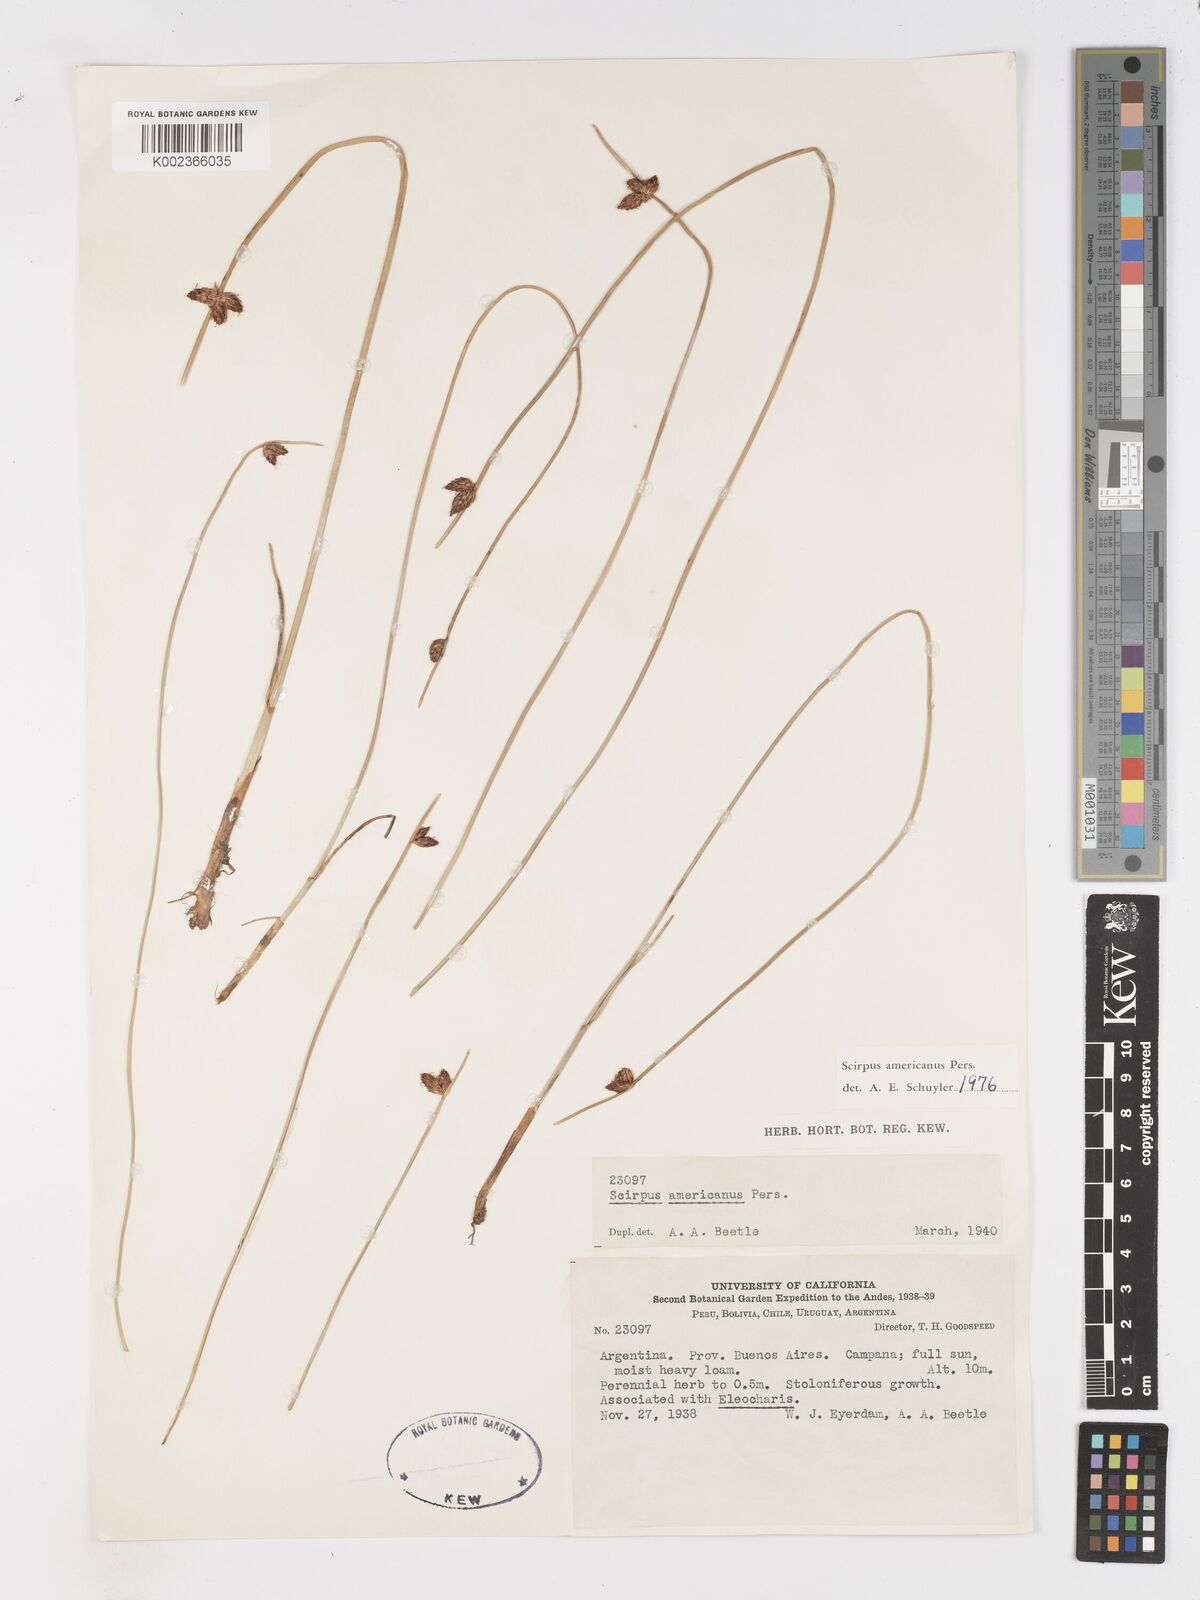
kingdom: Plantae
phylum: Tracheophyta
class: Liliopsida
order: Poales
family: Cyperaceae
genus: Schoenoplectus
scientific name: Schoenoplectus americanus
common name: American three-square bulrush
